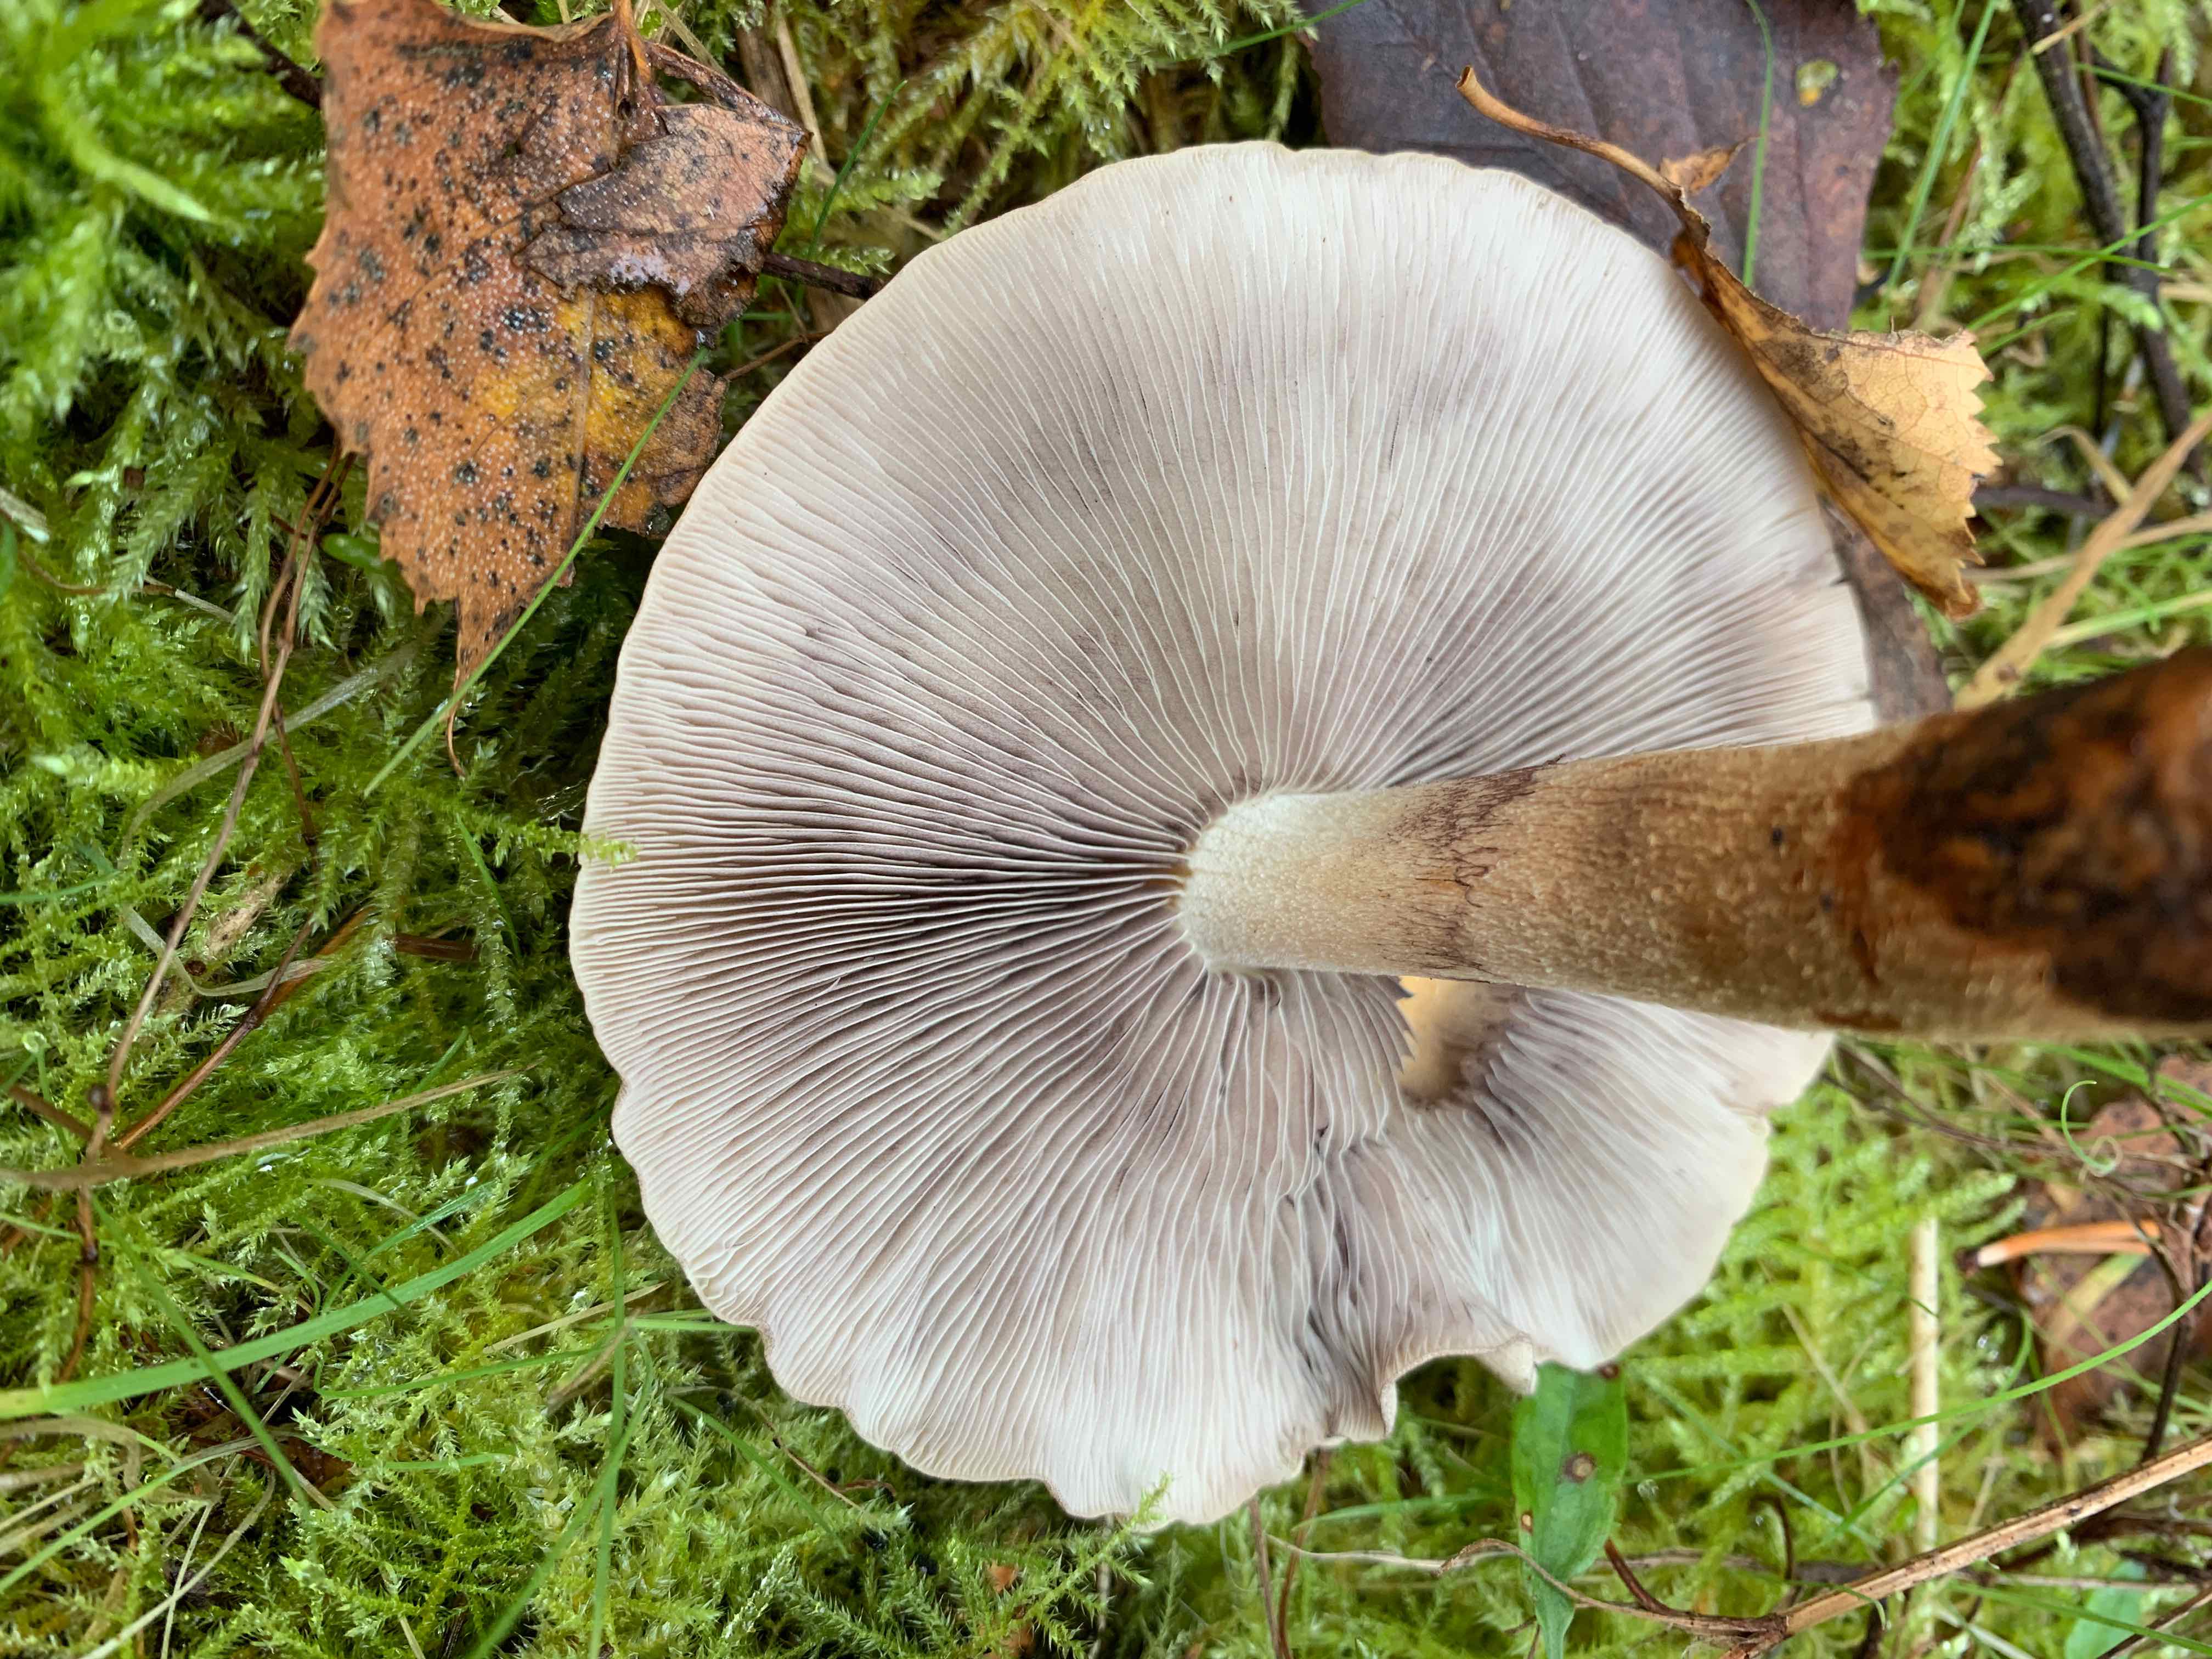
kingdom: Fungi
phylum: Basidiomycota
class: Agaricomycetes
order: Agaricales
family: Strophariaceae
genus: Hypholoma
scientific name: Hypholoma lateritium
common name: teglrød svovlhat
